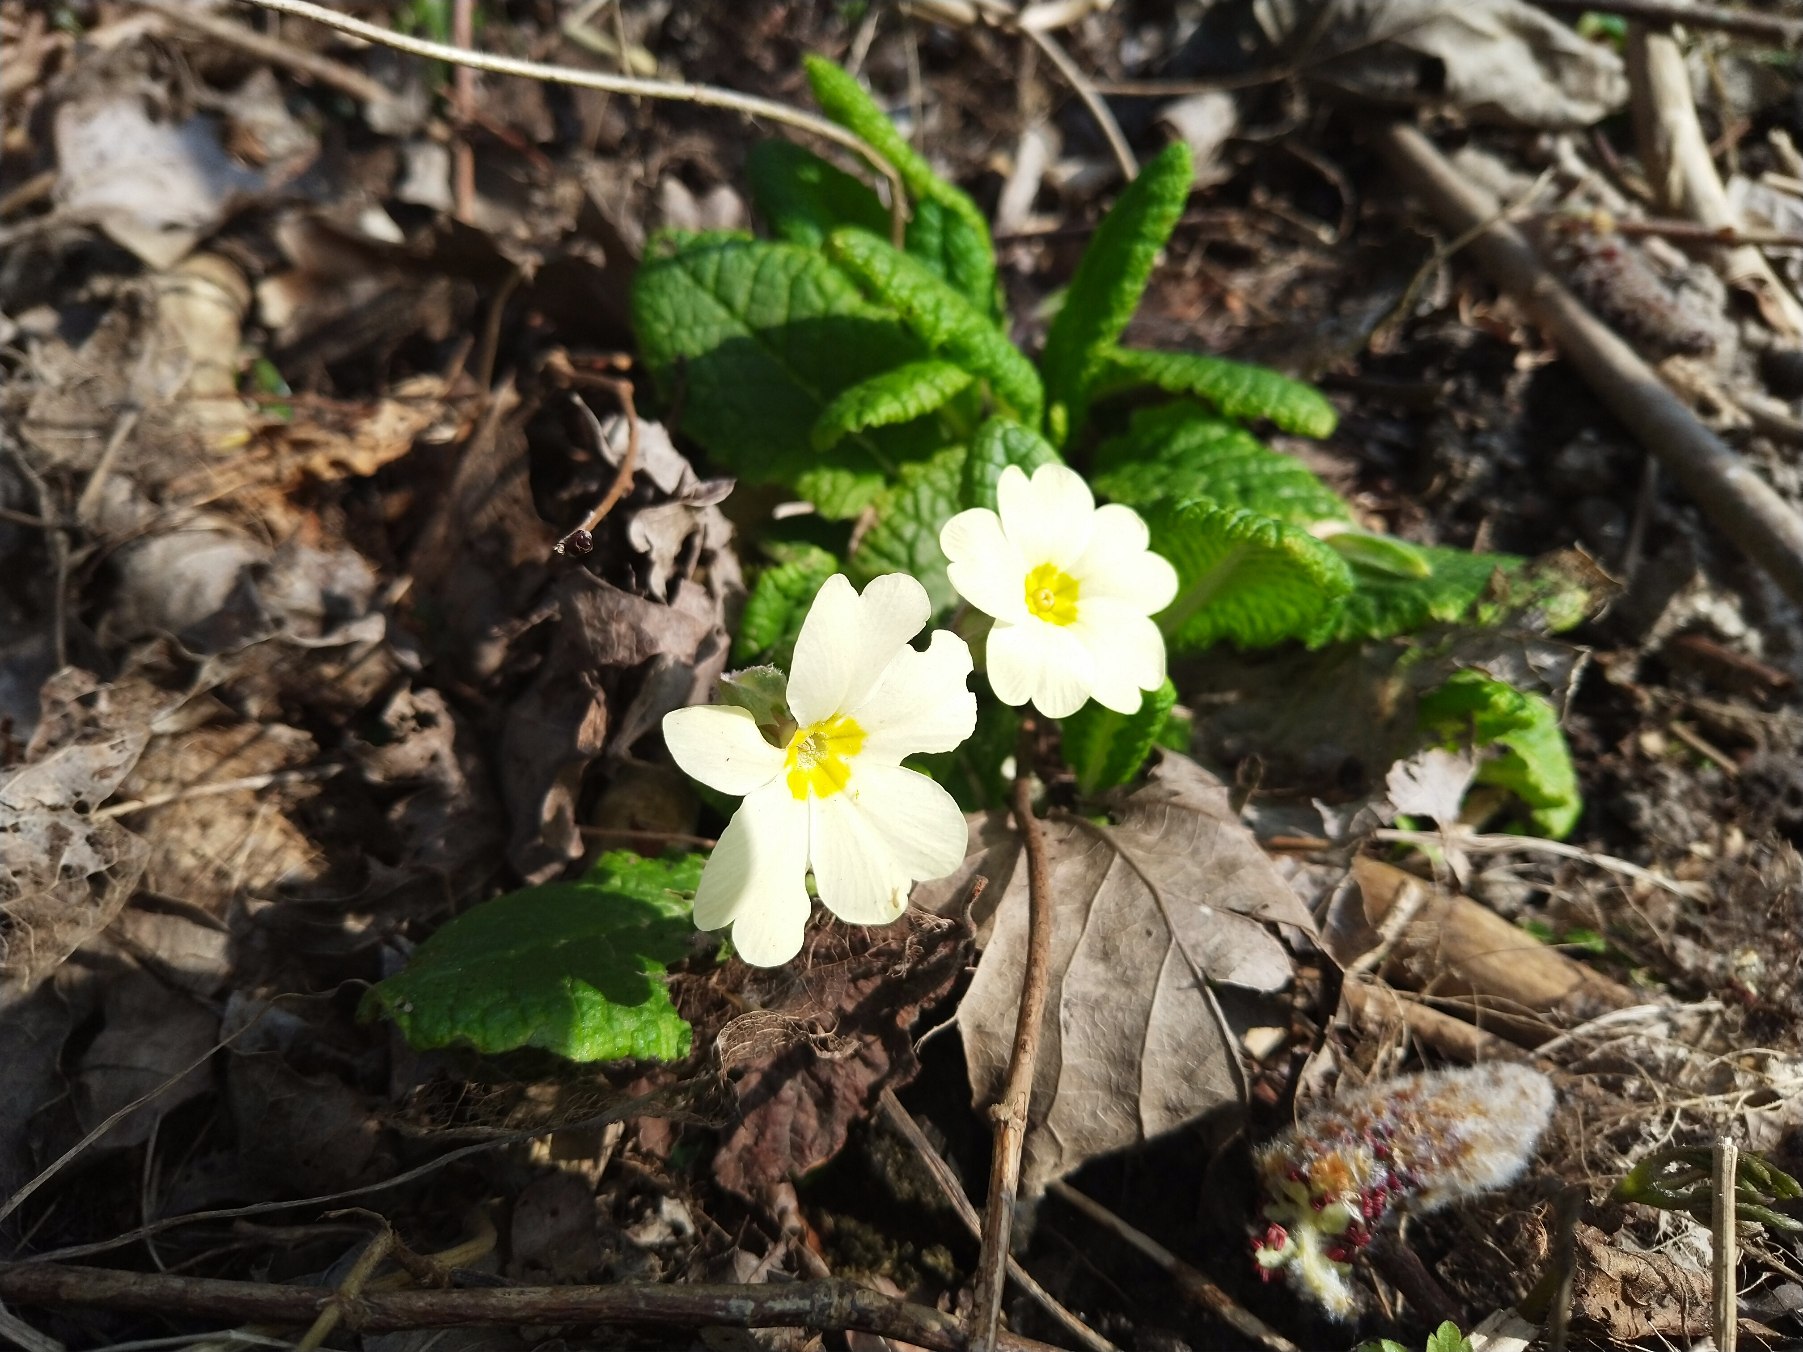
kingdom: Plantae
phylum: Tracheophyta
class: Magnoliopsida
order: Ericales
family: Primulaceae
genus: Primula
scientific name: Primula vulgaris
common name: Storblomstret kodriver
